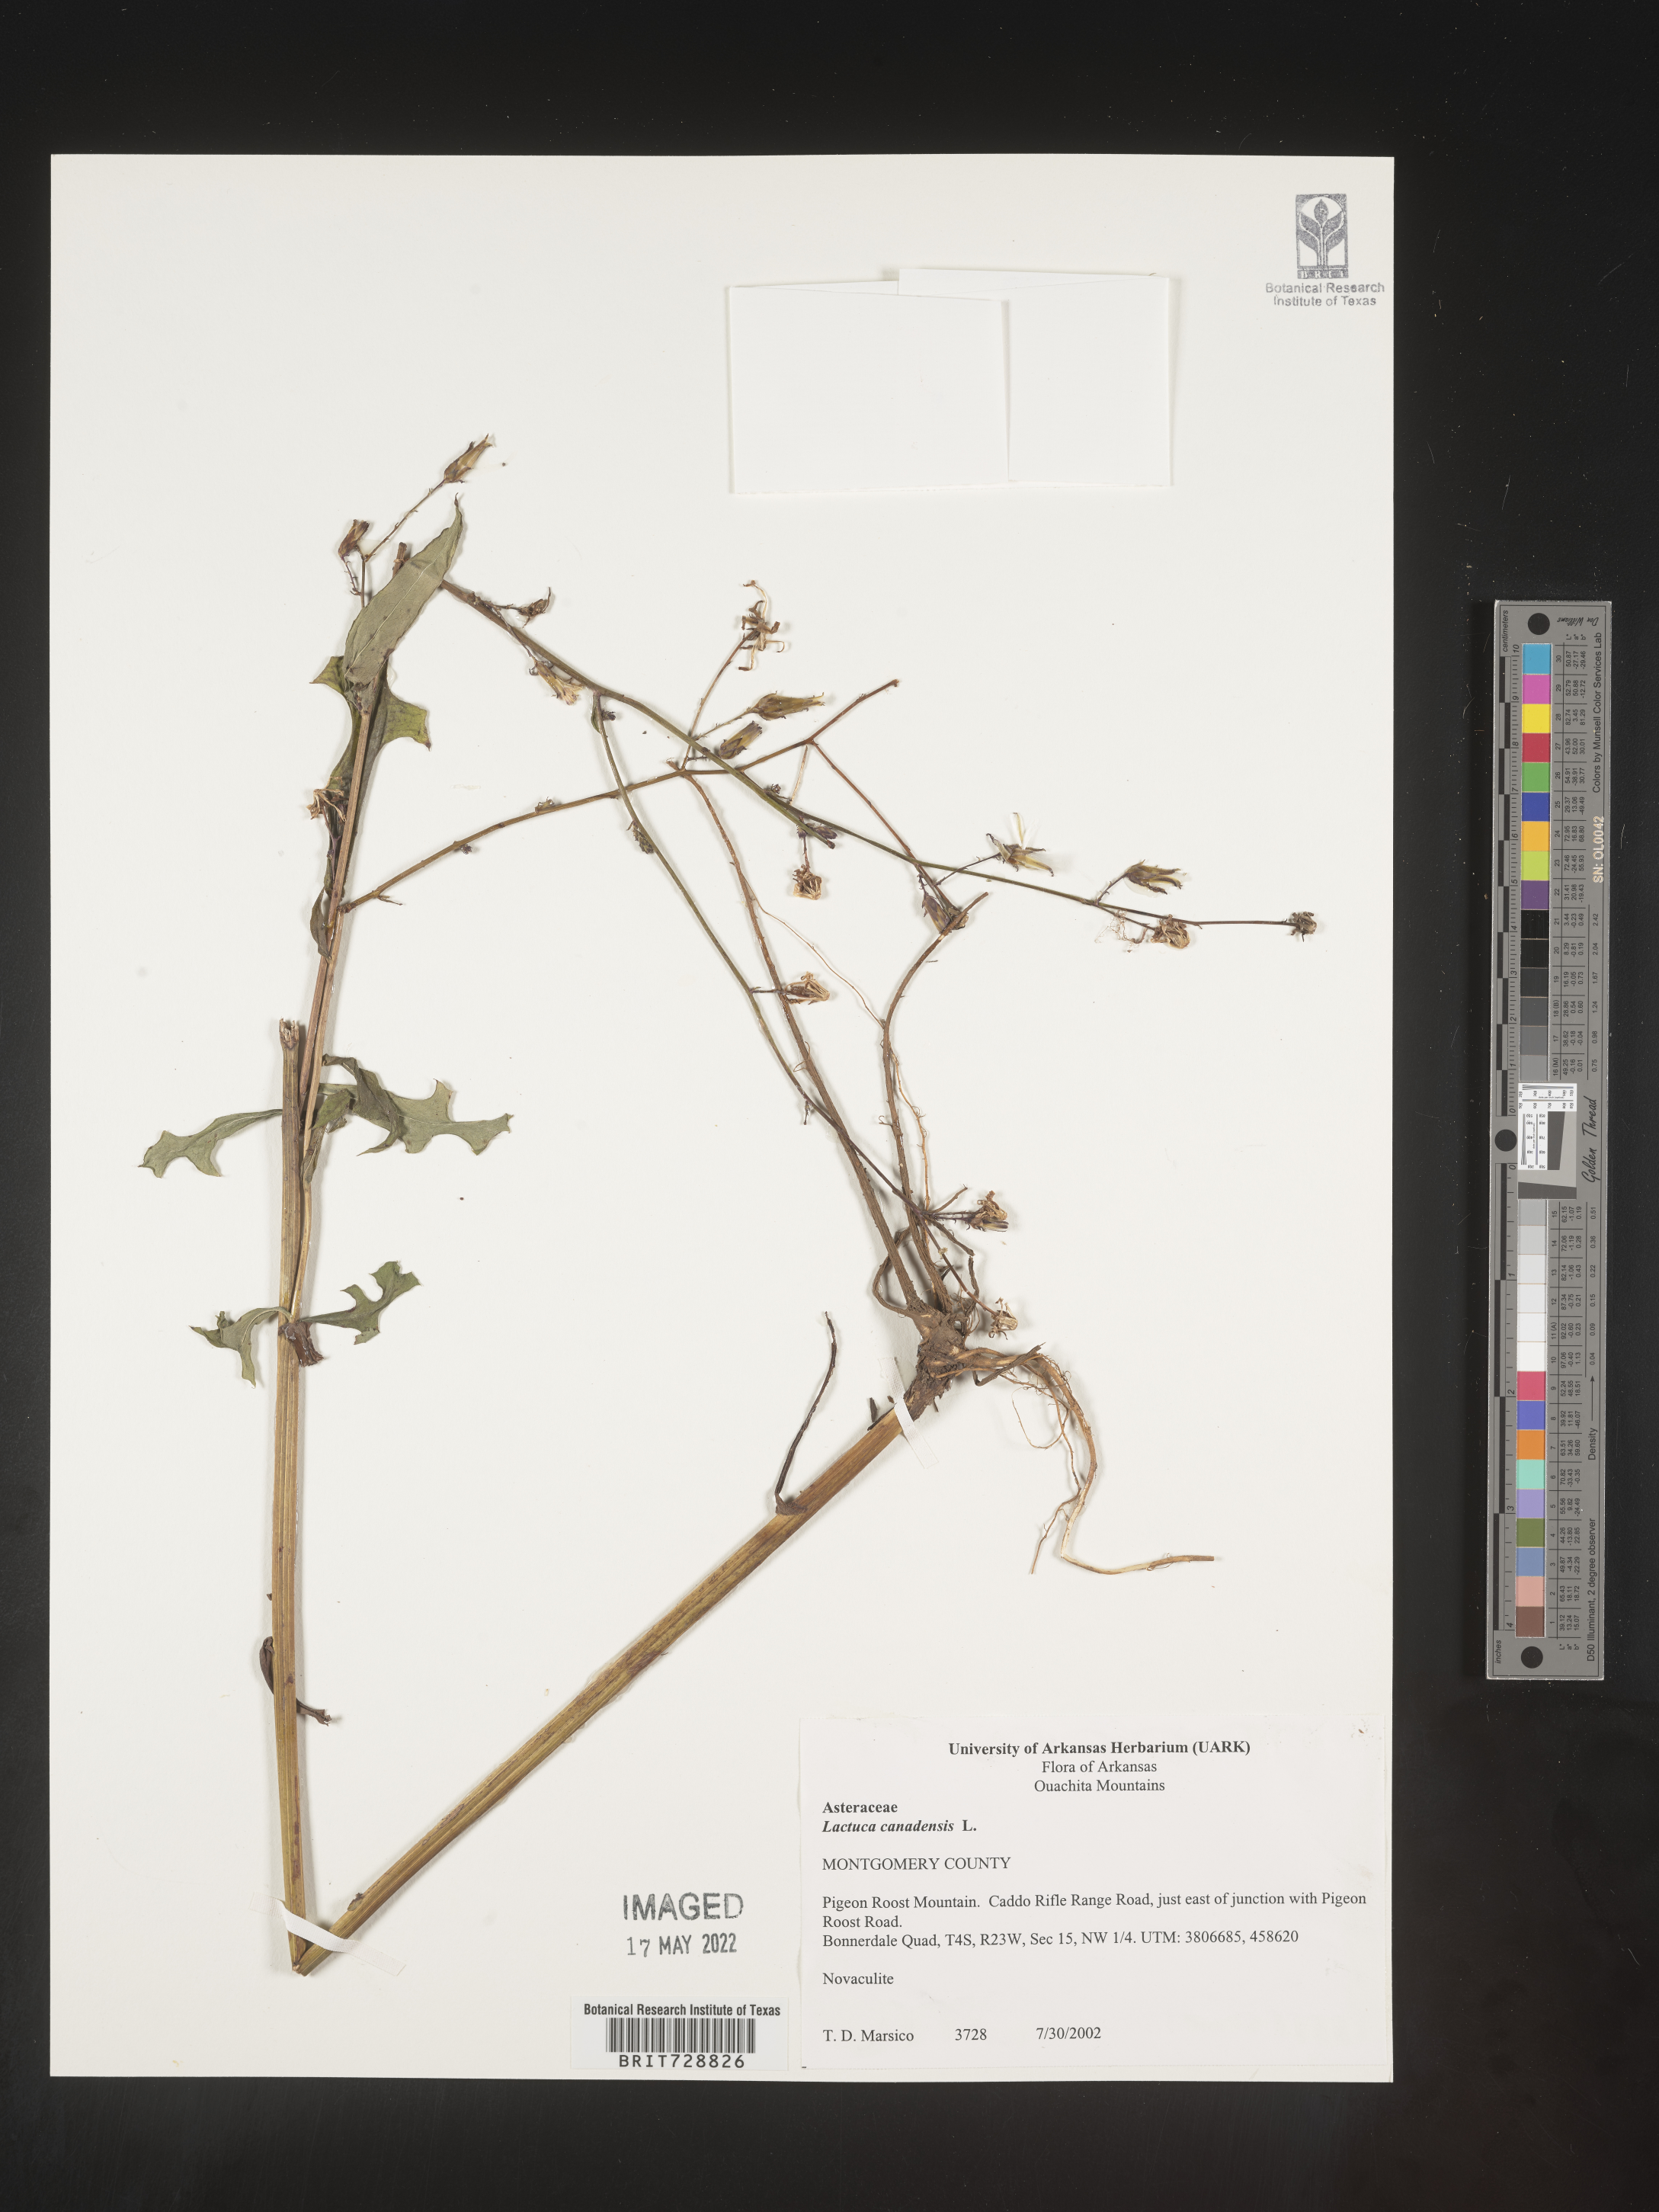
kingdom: Plantae
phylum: Tracheophyta
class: Magnoliopsida
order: Asterales
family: Asteraceae
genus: Lactuca
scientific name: Lactuca canadensis
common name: Canada lettuce
